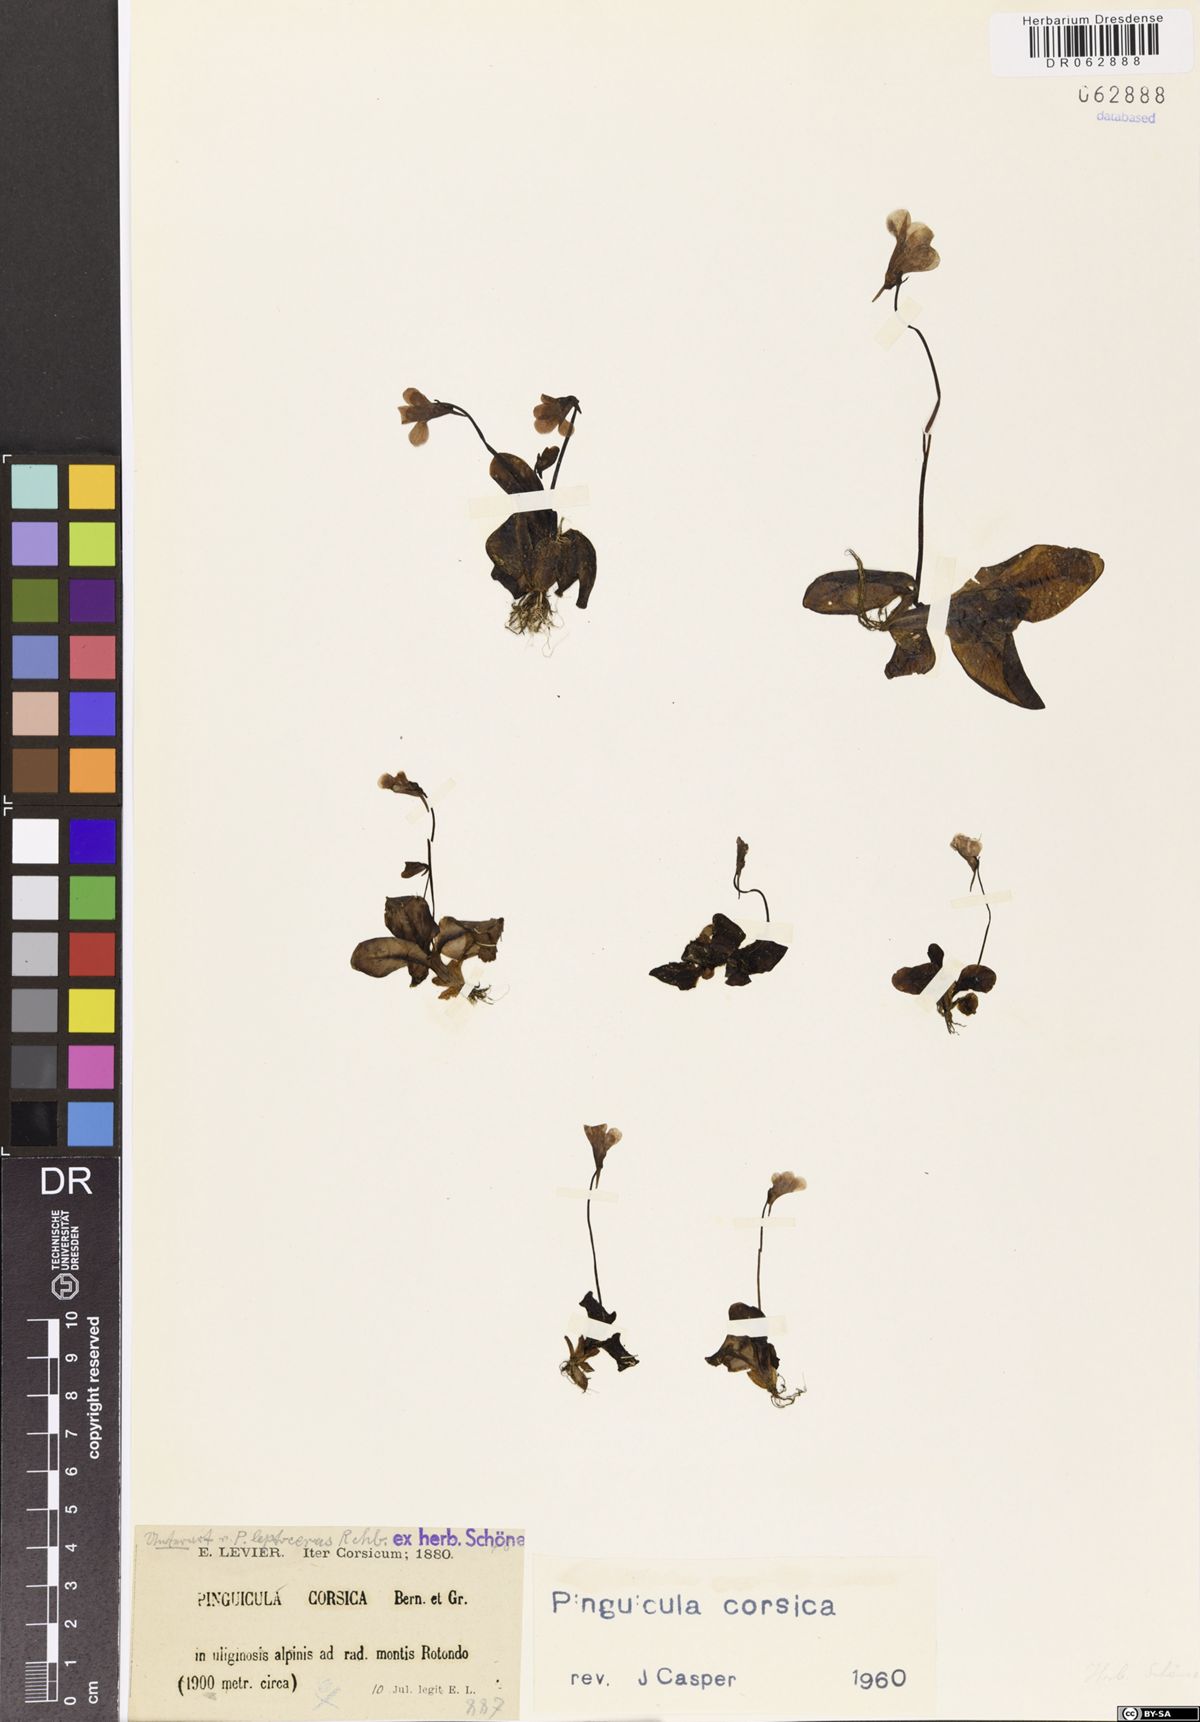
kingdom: Plantae
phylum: Tracheophyta
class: Magnoliopsida
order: Lamiales
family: Lentibulariaceae
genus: Pinguicula
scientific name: Pinguicula corsica
